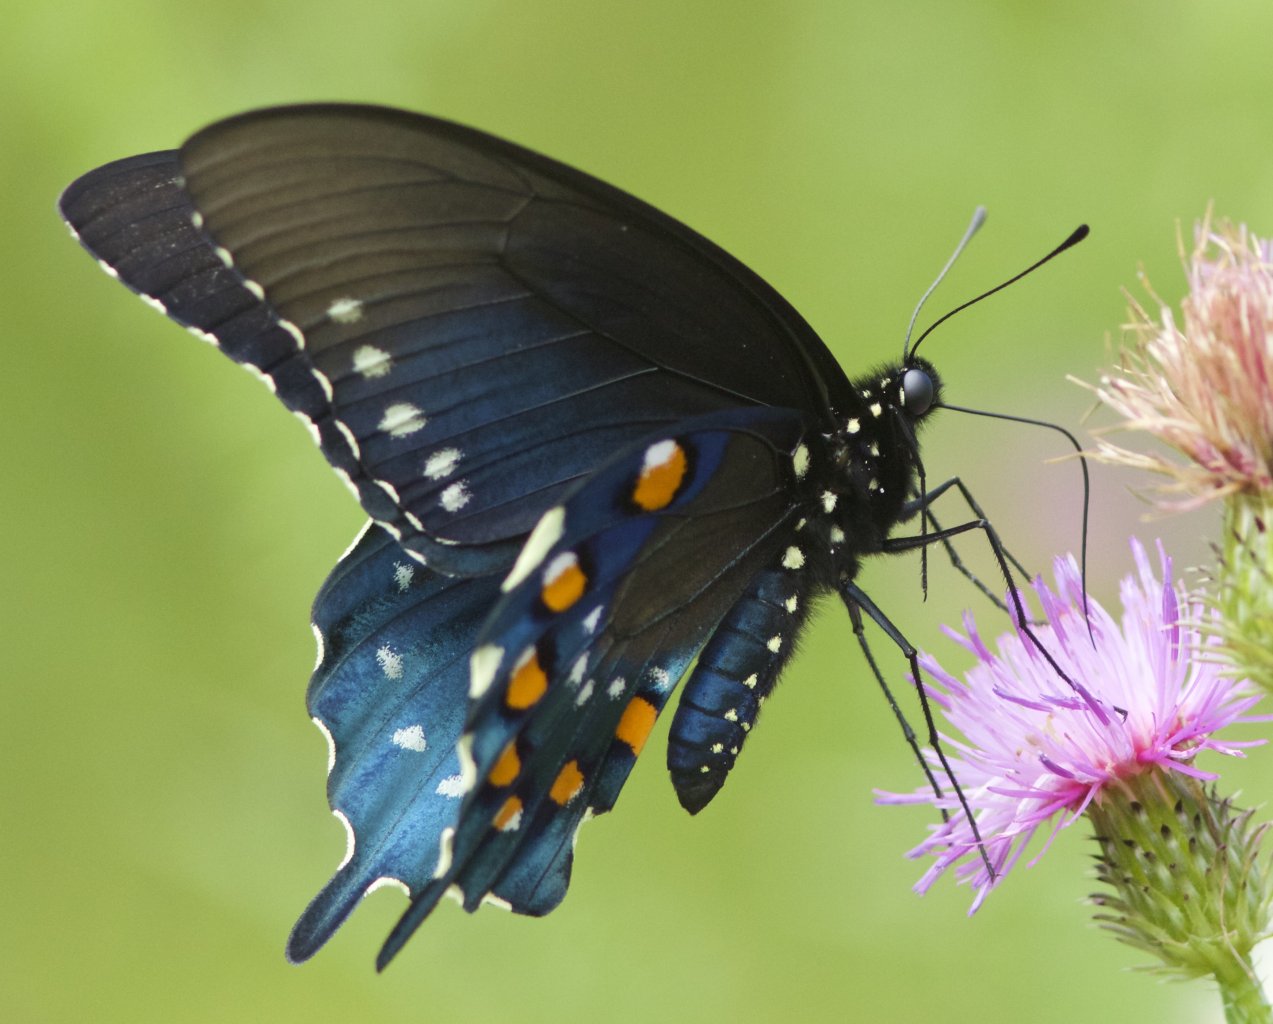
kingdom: Animalia
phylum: Arthropoda
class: Insecta
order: Lepidoptera
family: Papilionidae
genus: Battus
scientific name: Battus philenor
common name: Pipevine Swallowtail
